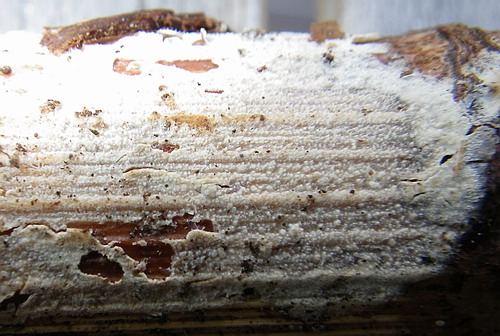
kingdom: Fungi
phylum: Basidiomycota
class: Agaricomycetes
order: Polyporales
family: Phanerochaetaceae
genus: Hyphodermella
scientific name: Hyphodermella corrugata
